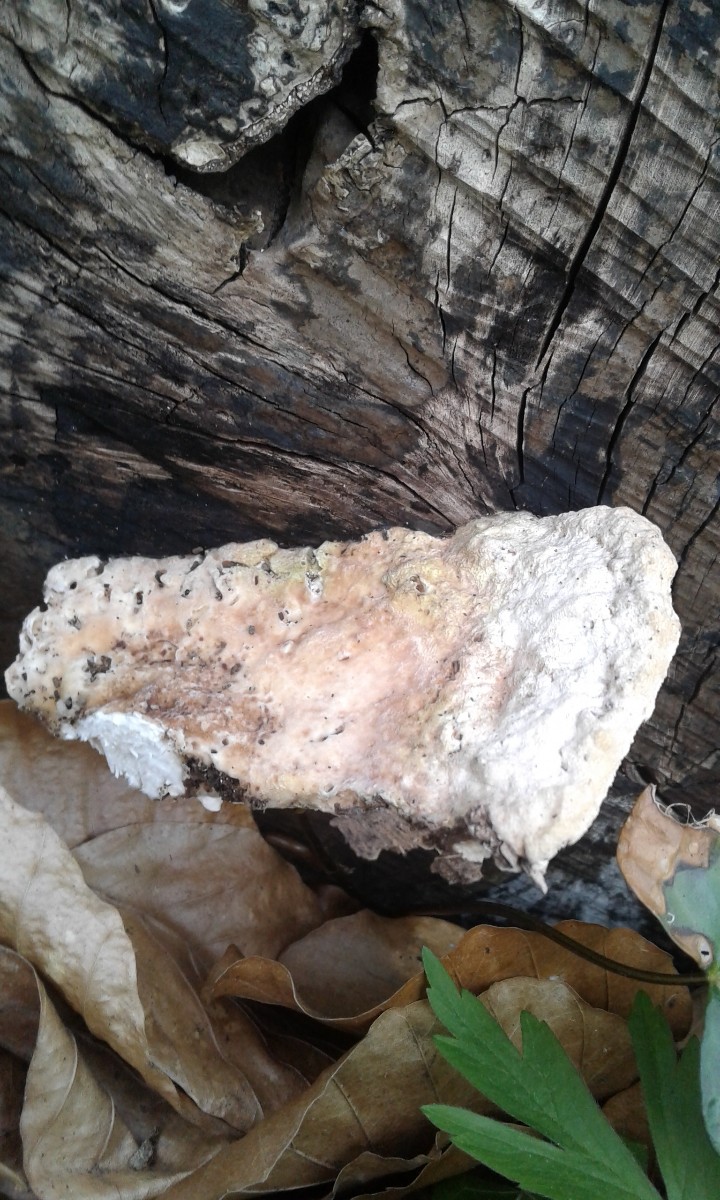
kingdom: Fungi
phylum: Basidiomycota
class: Agaricomycetes
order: Polyporales
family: Polyporaceae
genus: Trametes
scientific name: Trametes gibbosa
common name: puklet læderporesvamp
